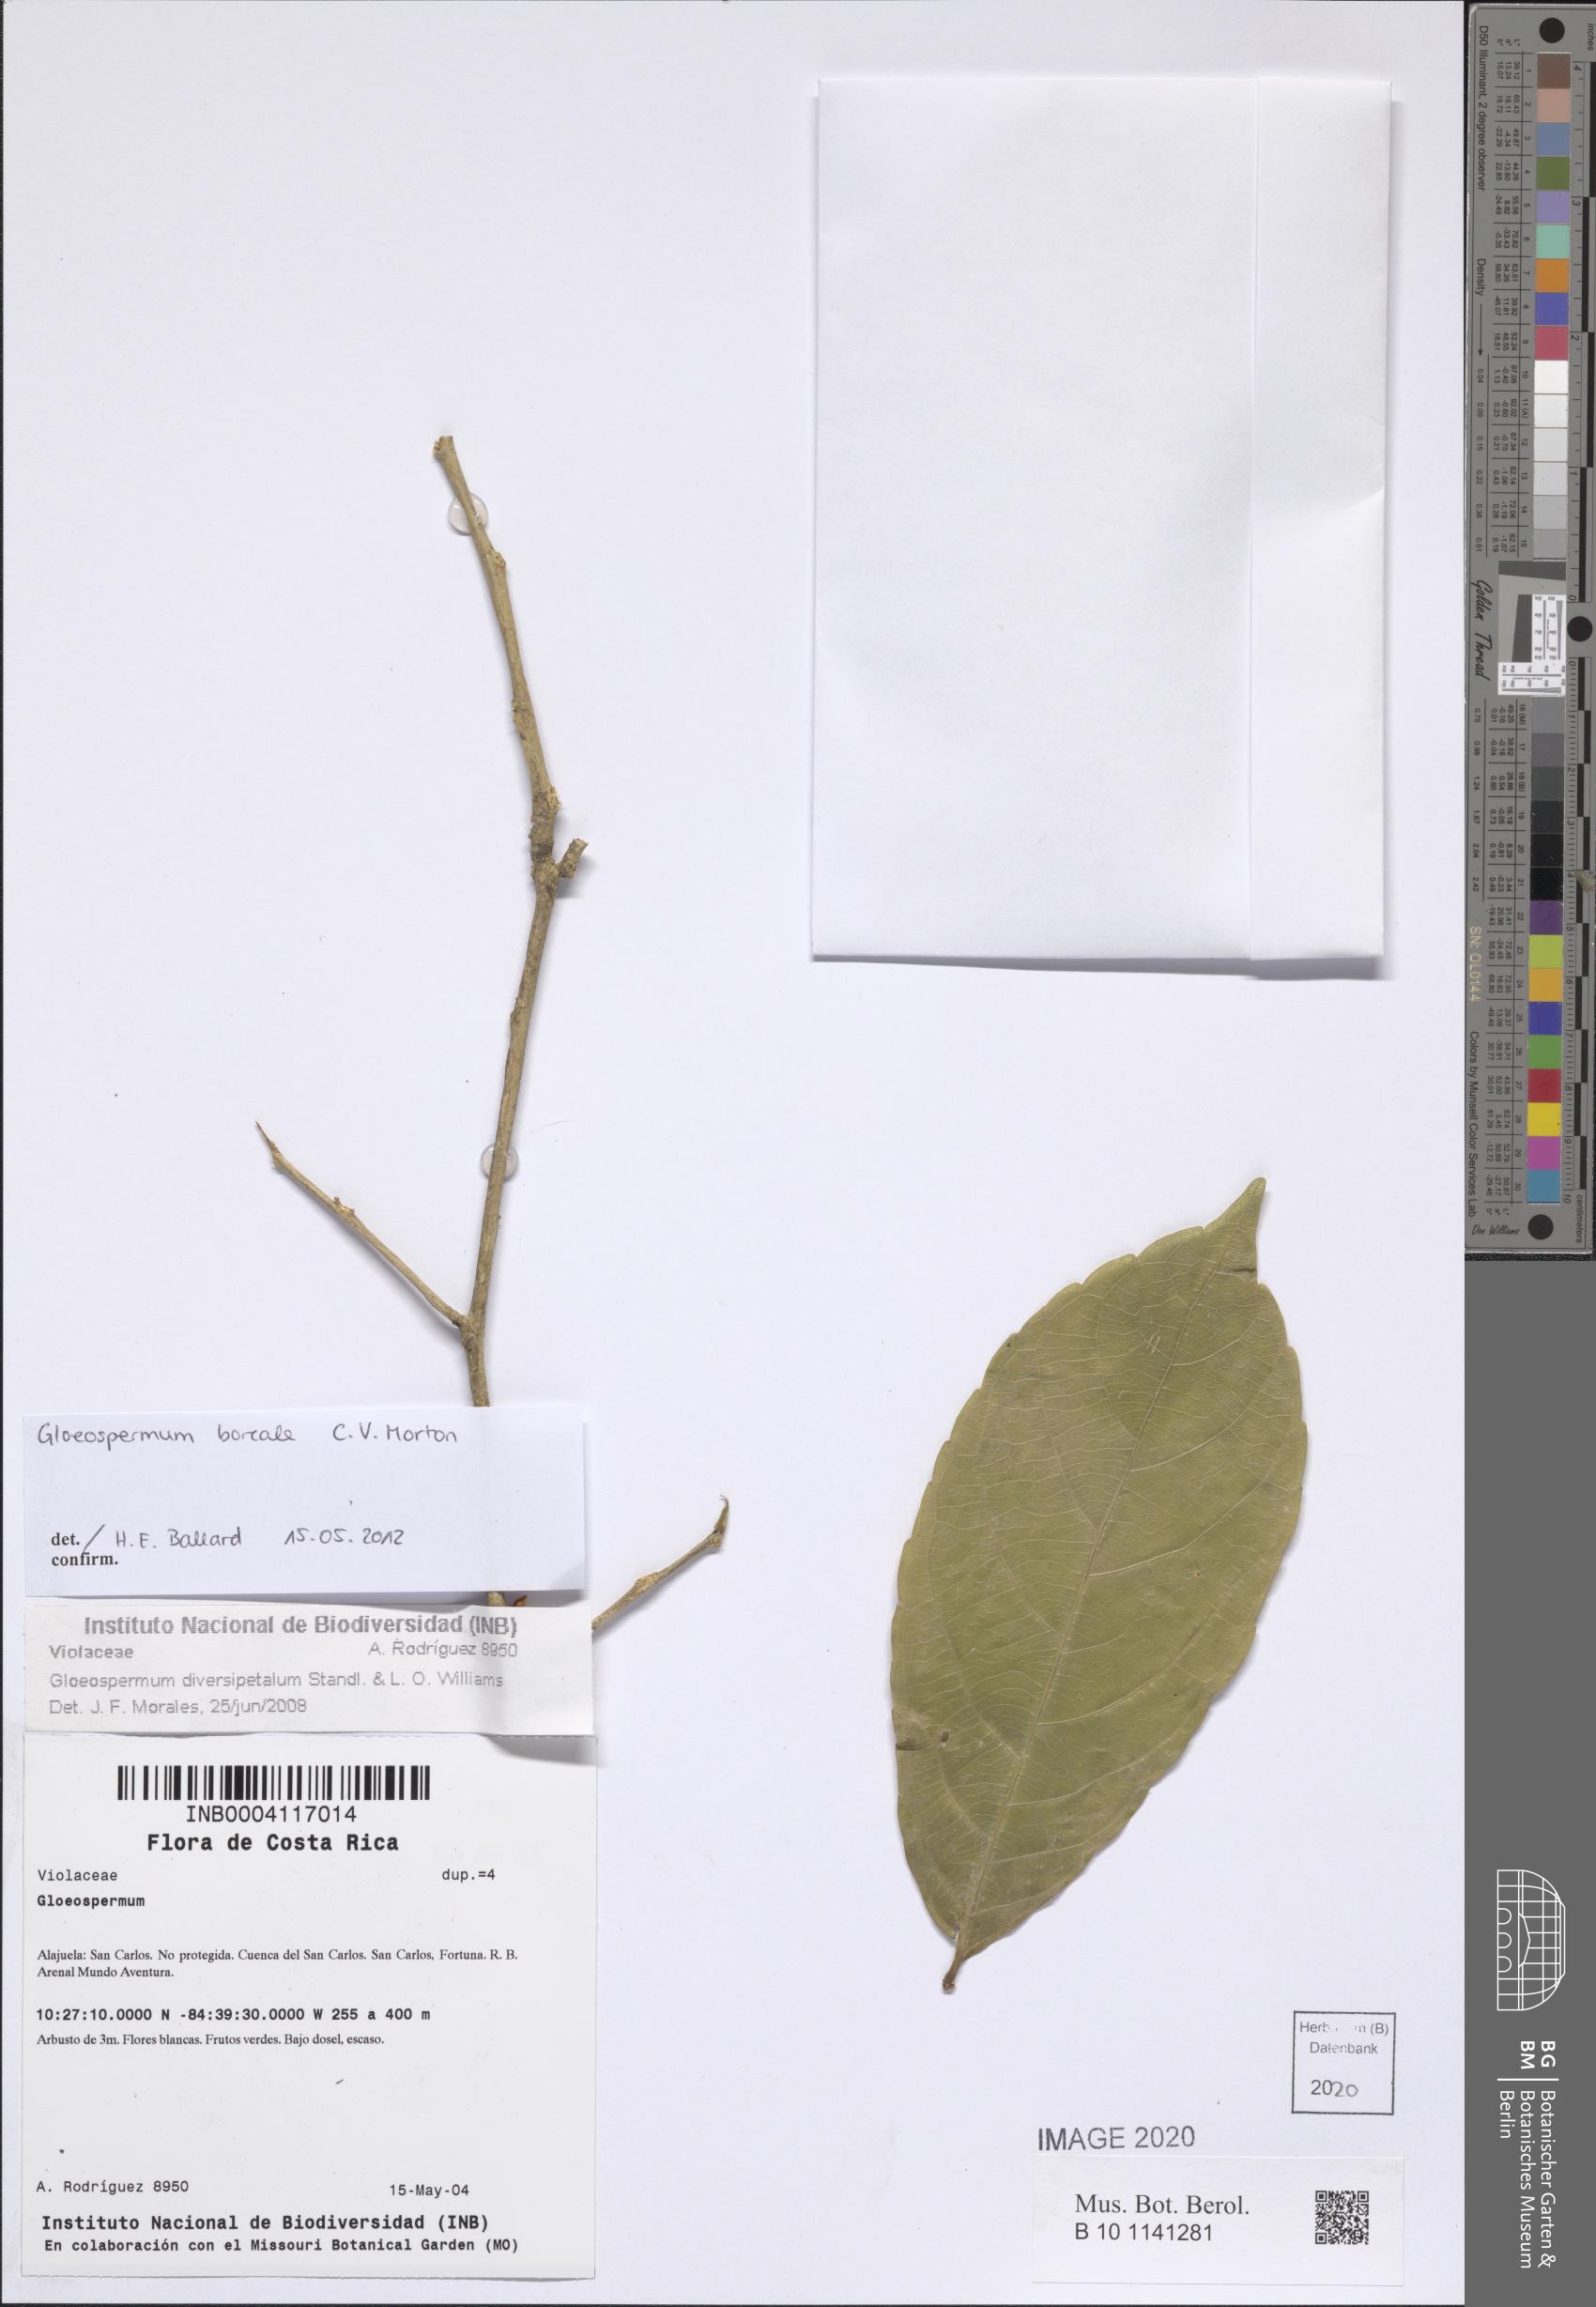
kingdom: Plantae
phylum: Tracheophyta
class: Magnoliopsida
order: Malpighiales
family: Violaceae
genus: Gloeospermum
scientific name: Gloeospermum boreale
